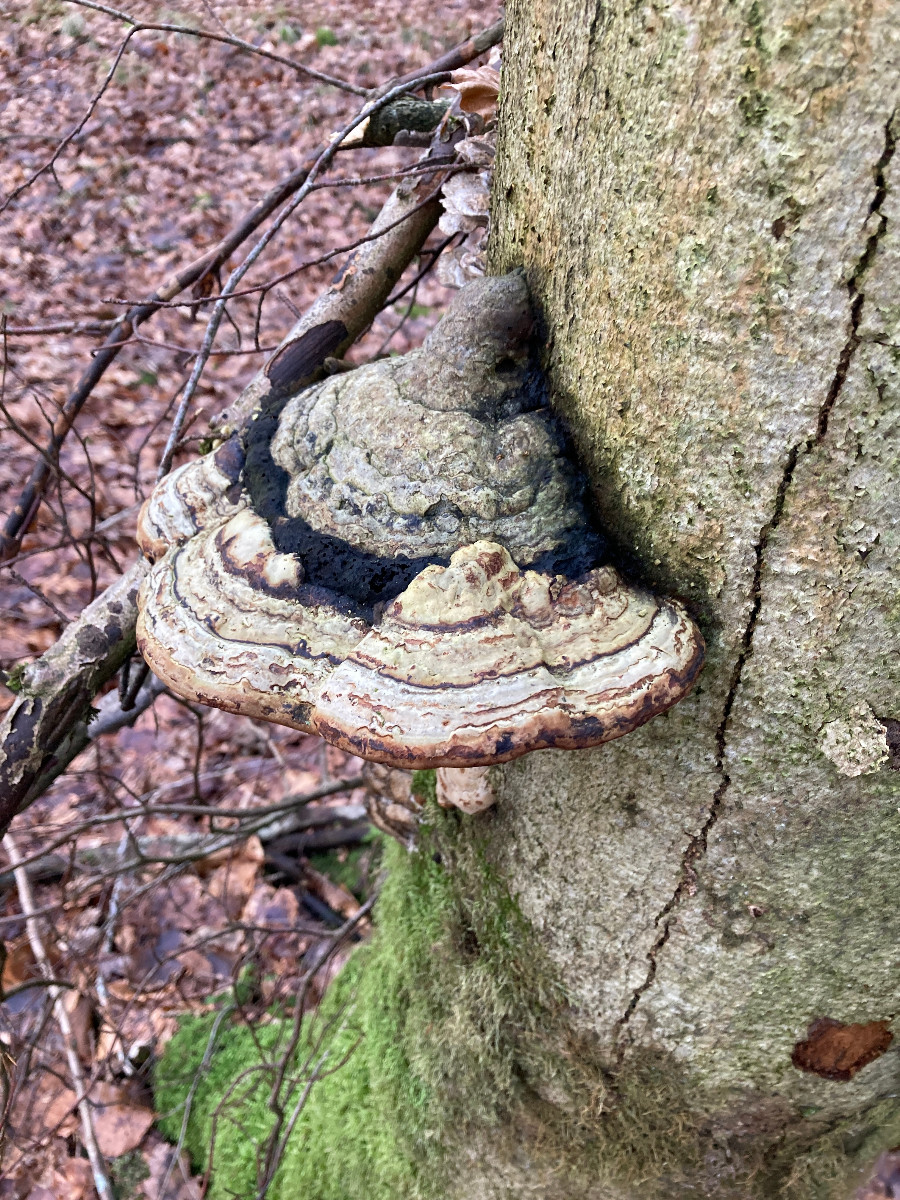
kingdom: Fungi
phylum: Basidiomycota
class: Agaricomycetes
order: Polyporales
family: Polyporaceae
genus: Fomes
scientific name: Fomes fomentarius
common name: tøndersvamp
